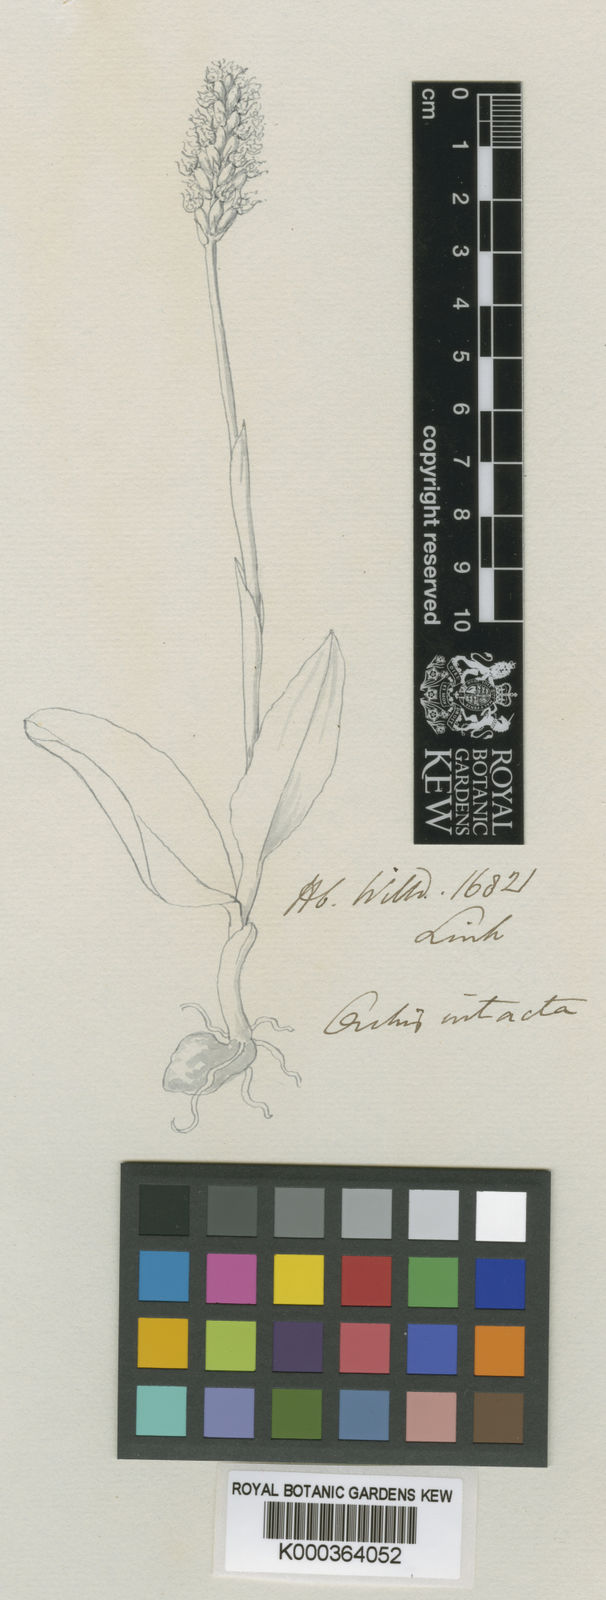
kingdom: Plantae
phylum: Tracheophyta
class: Liliopsida
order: Asparagales
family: Orchidaceae
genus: Neotinea
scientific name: Neotinea maculata
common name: Dense-flowered orchid
